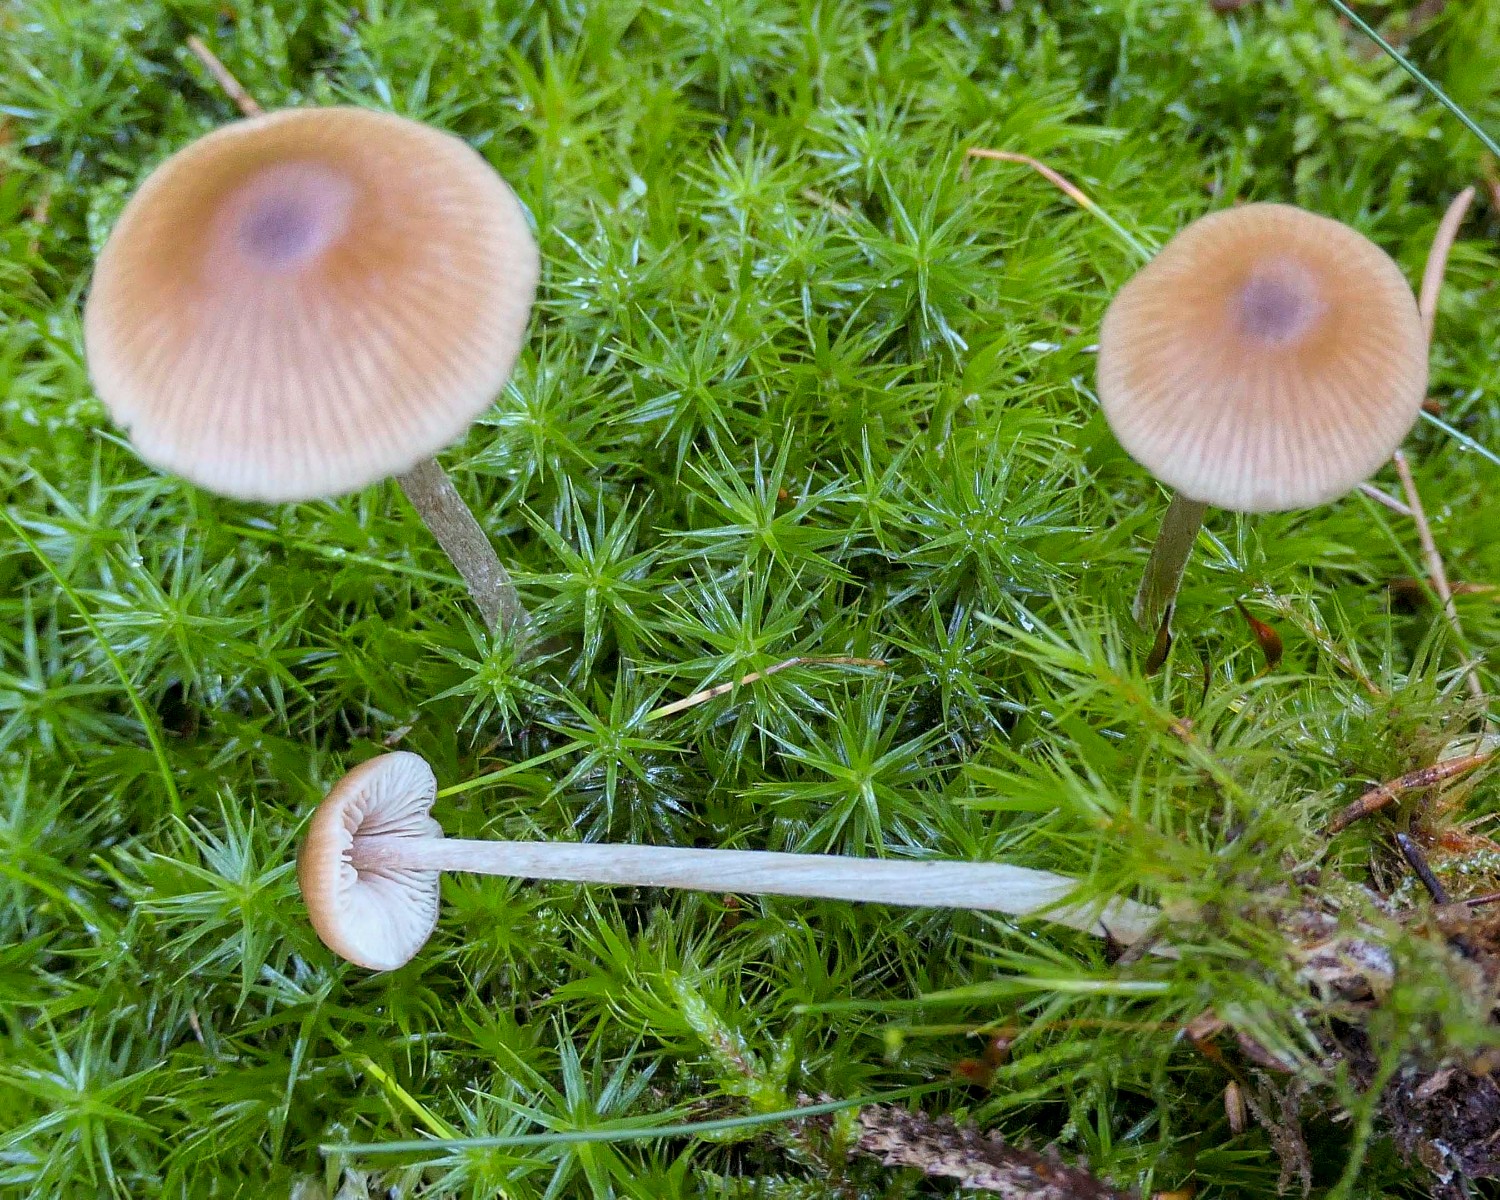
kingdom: Fungi
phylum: Basidiomycota
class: Agaricomycetes
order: Agaricales
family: Entolomataceae
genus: Entoloma
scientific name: Entoloma cetratum
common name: voks-rødblad
